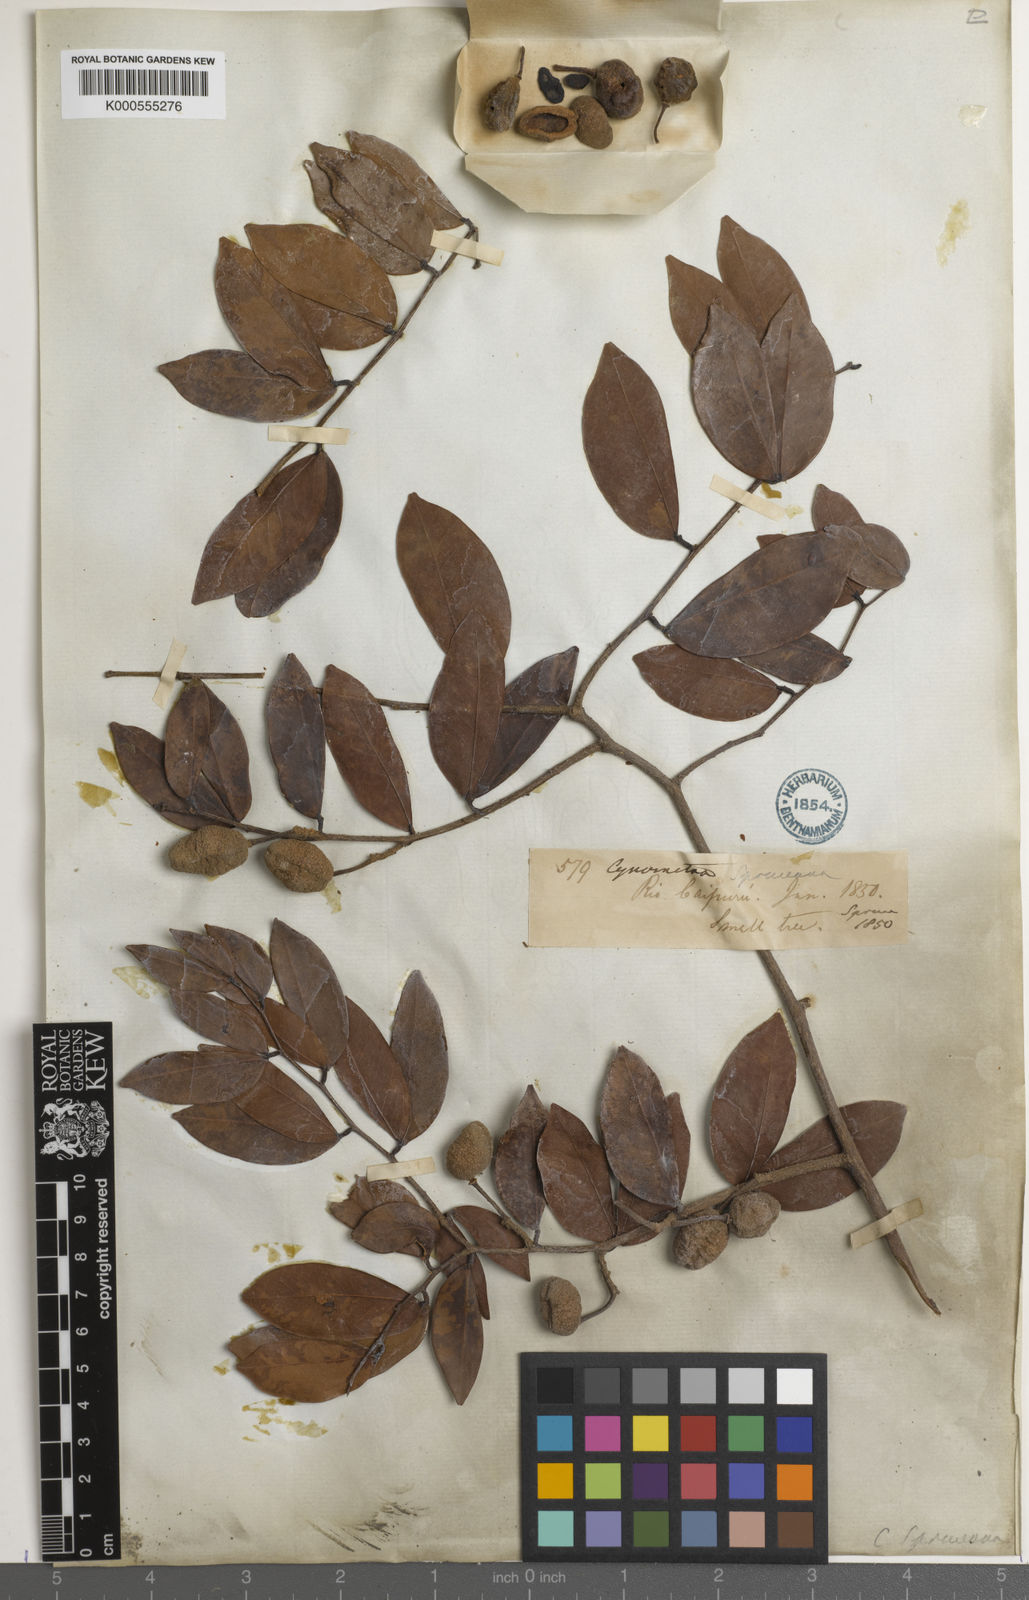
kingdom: Plantae
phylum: Tracheophyta
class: Magnoliopsida
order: Fabales
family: Fabaceae
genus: Cynometra
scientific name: Cynometra phaselocarpa
